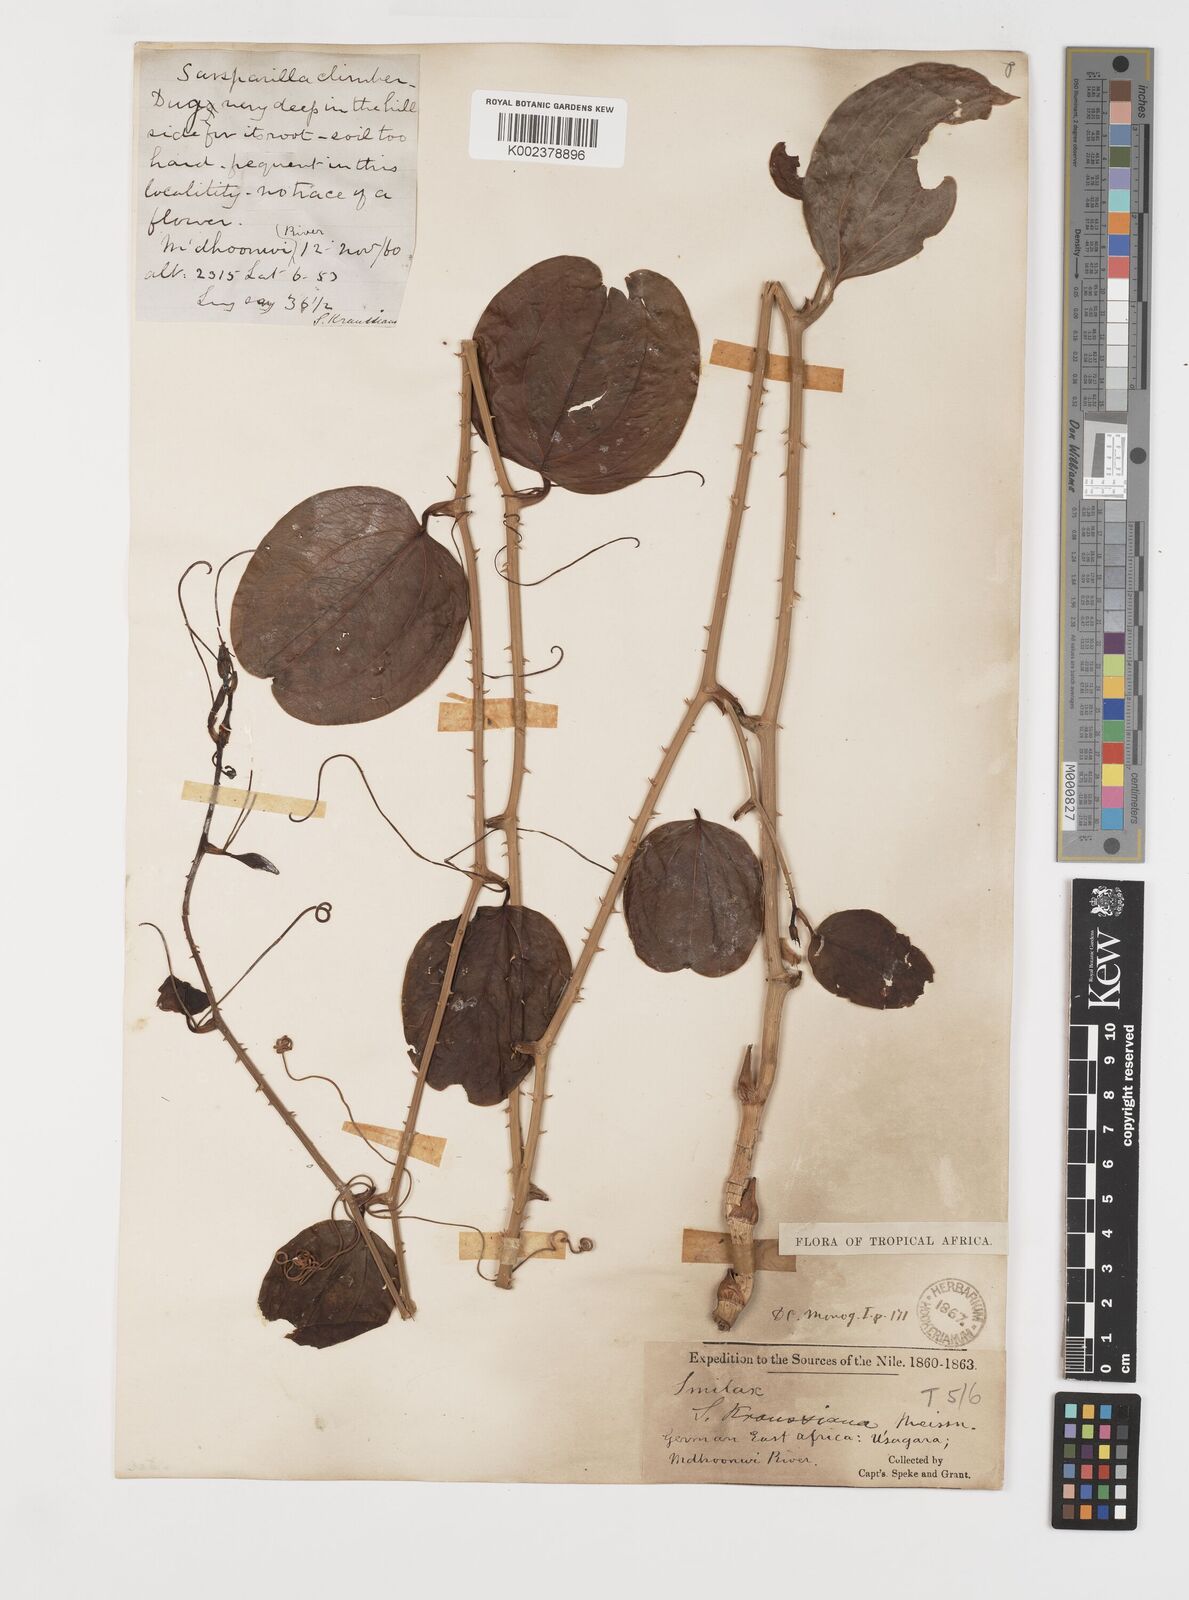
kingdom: Plantae
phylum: Tracheophyta
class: Liliopsida
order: Liliales
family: Smilacaceae
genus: Smilax
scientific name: Smilax anceps
